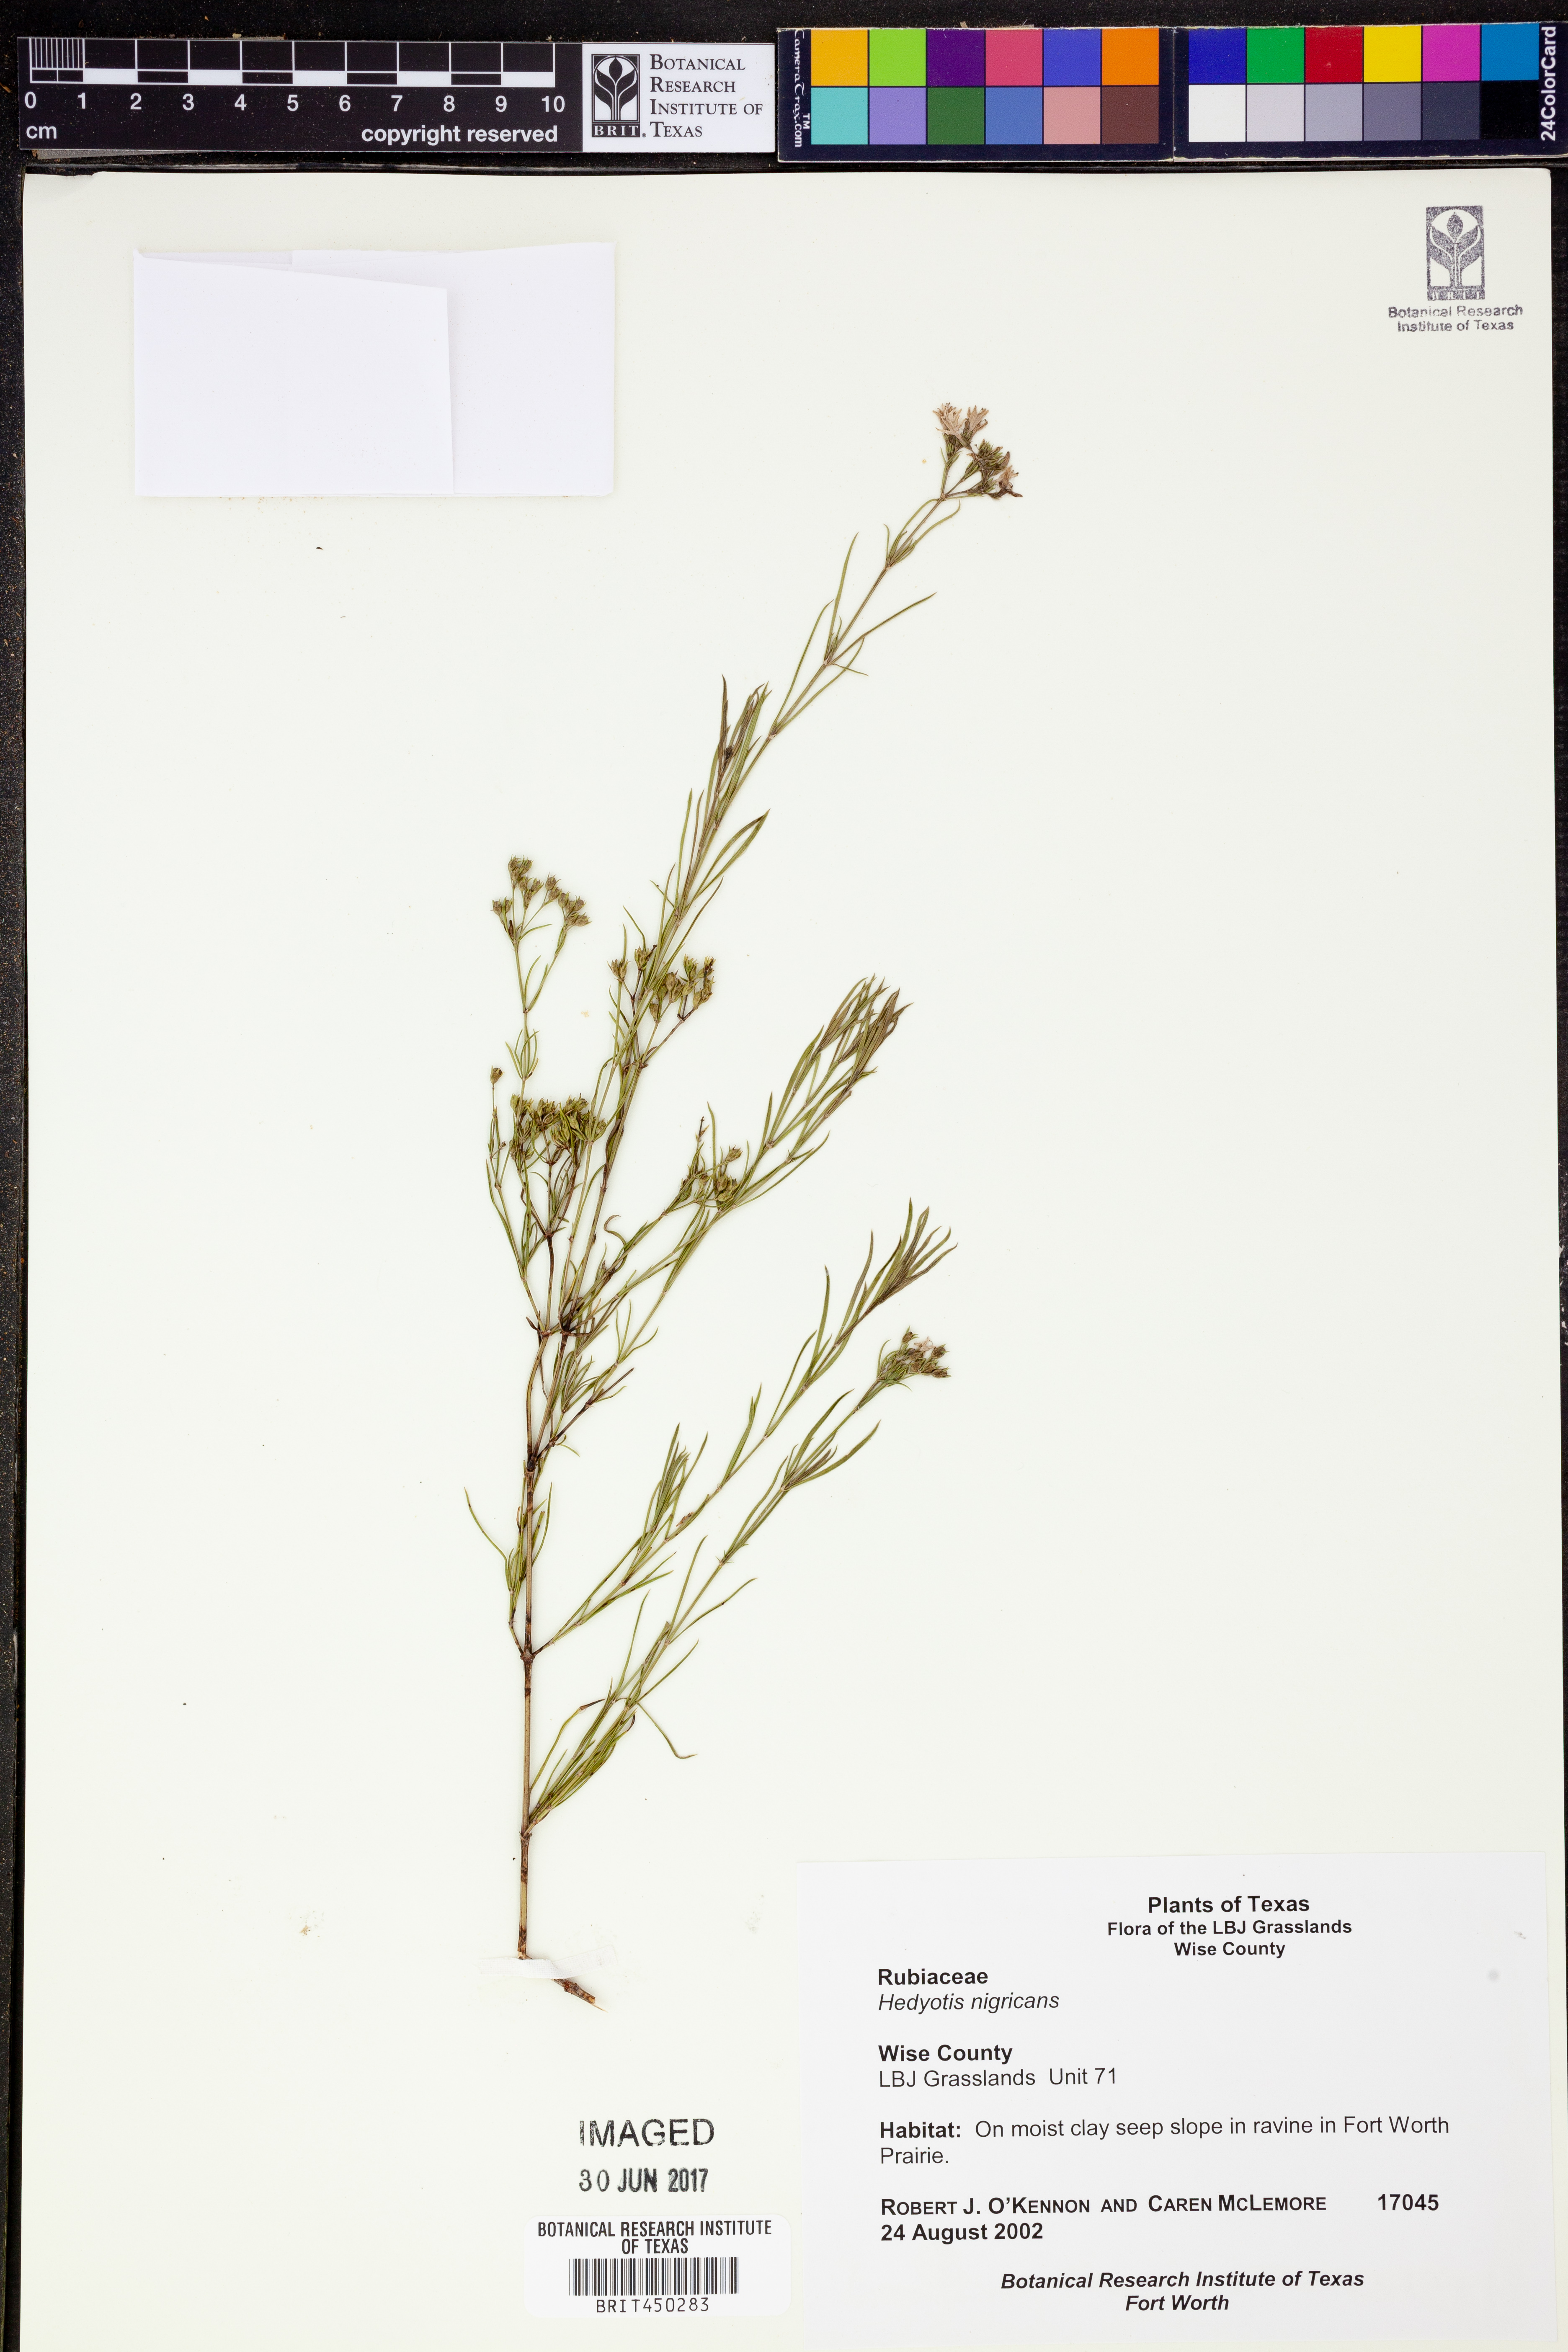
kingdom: Plantae
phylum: Tracheophyta
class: Magnoliopsida
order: Gentianales
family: Rubiaceae
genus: Stenaria
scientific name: Stenaria nigricans
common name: Diamondflowers
